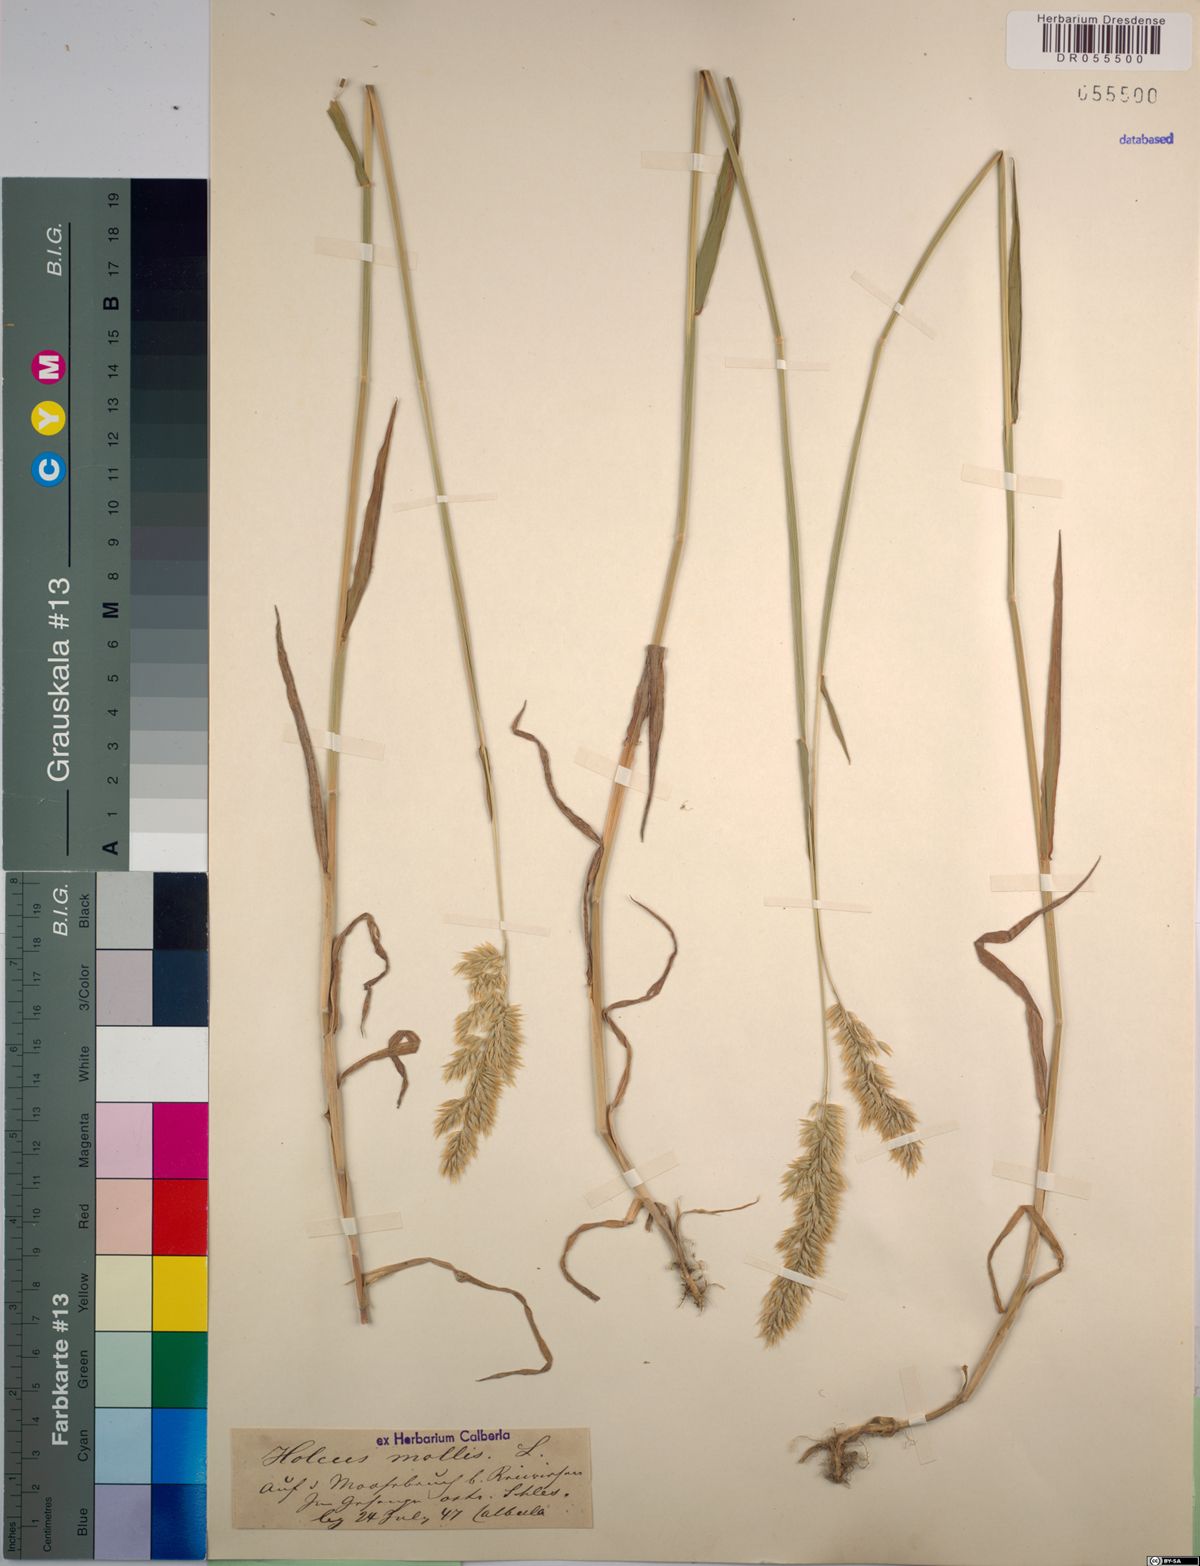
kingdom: Plantae
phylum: Tracheophyta
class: Liliopsida
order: Poales
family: Poaceae
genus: Holcus
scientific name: Holcus mollis
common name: Creeping velvetgrass
